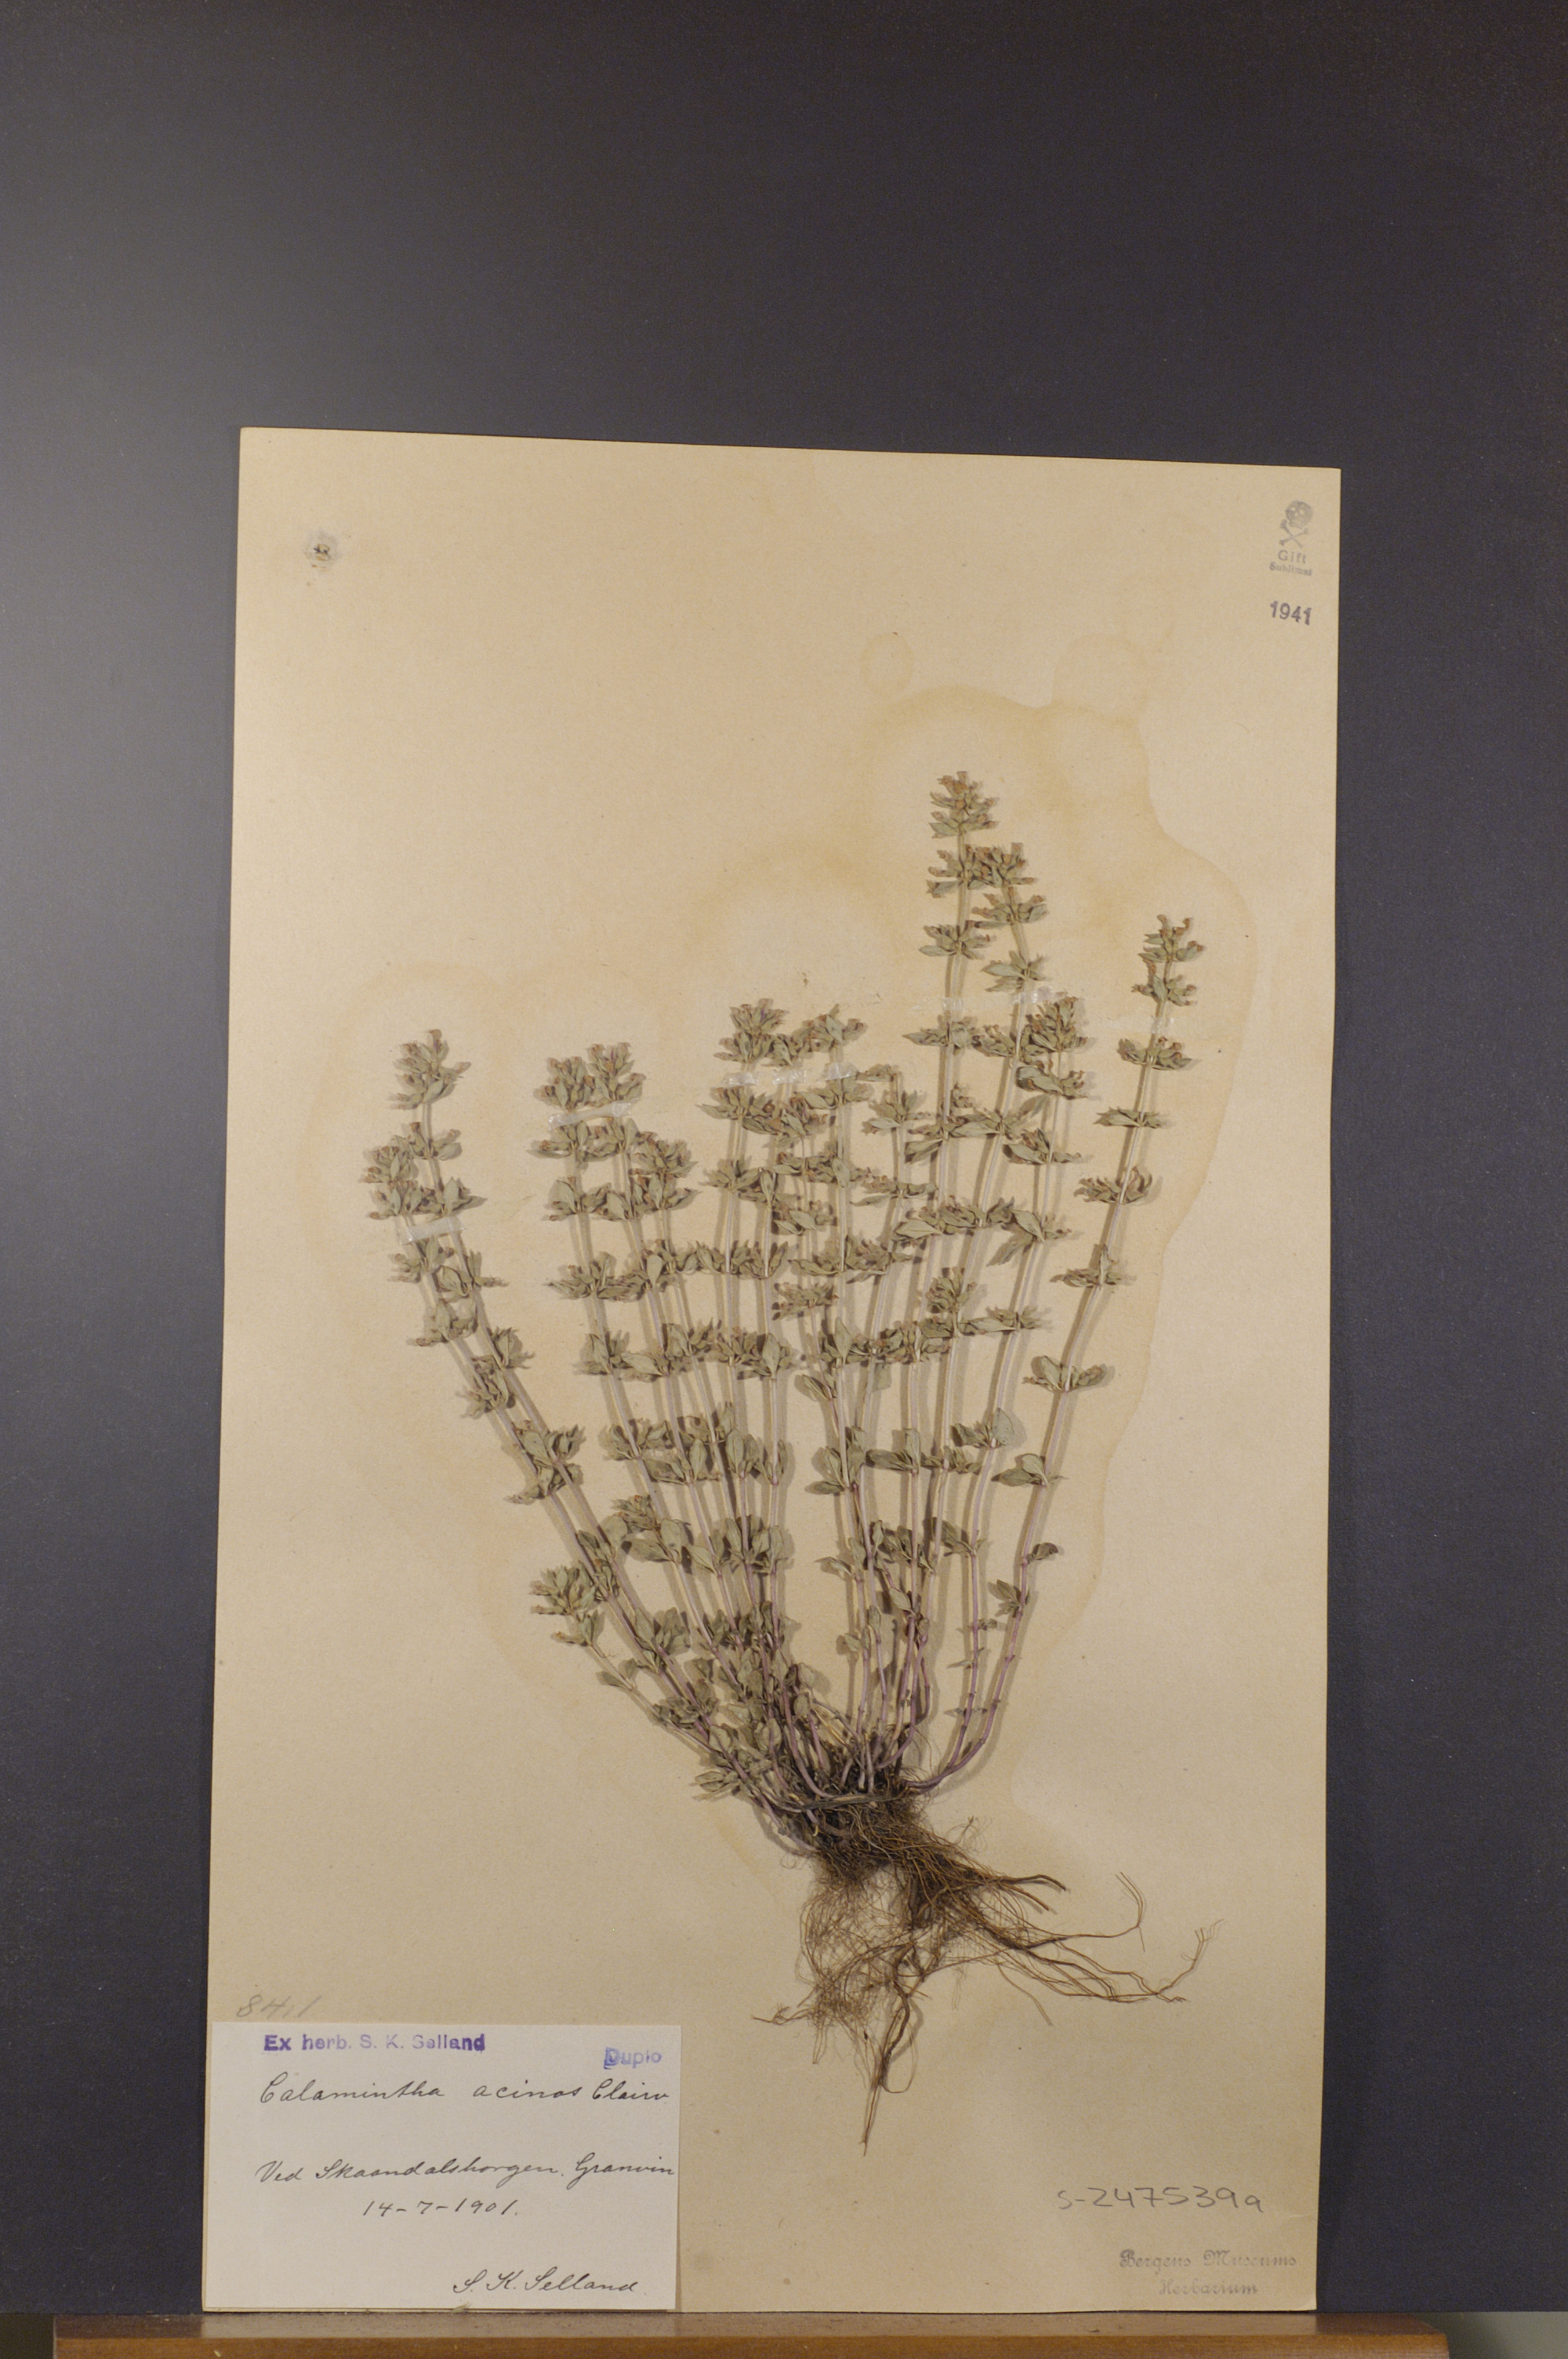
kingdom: Plantae
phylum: Tracheophyta
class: Magnoliopsida
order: Lamiales
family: Lamiaceae
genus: Clinopodium
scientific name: Clinopodium acinos
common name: Basil thyme
